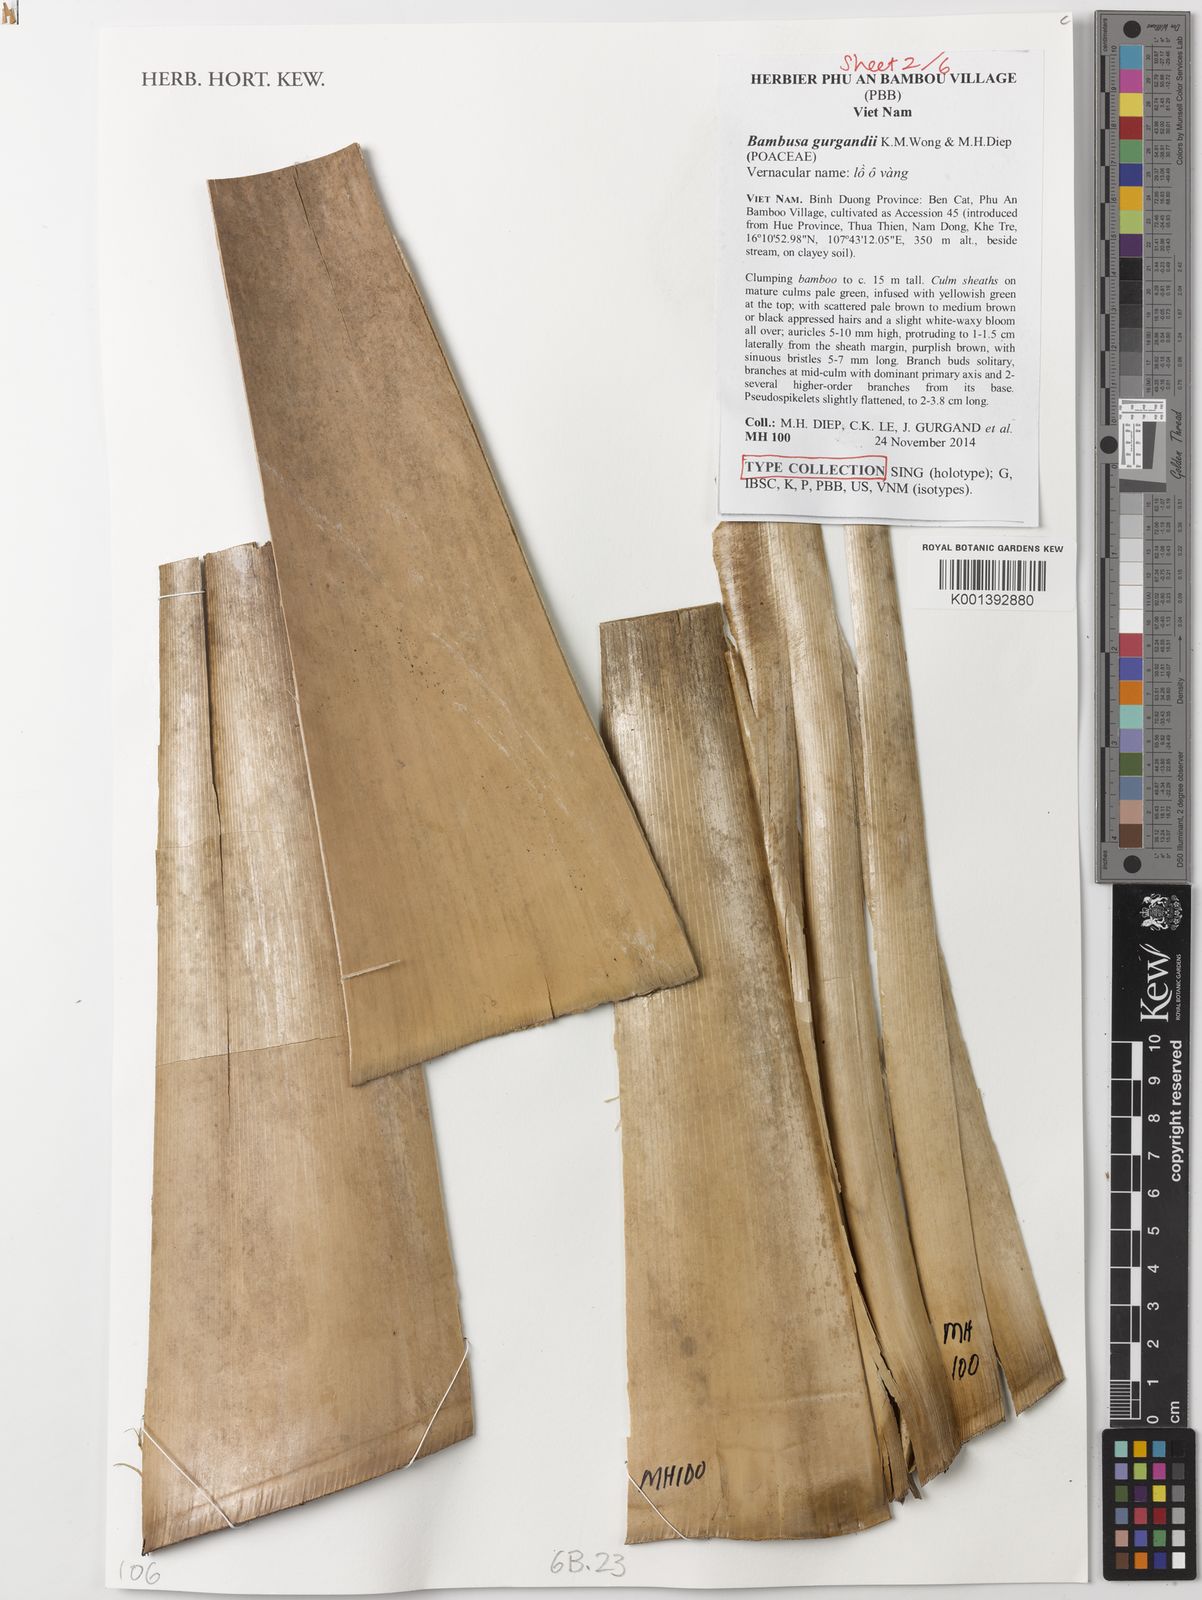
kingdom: Plantae
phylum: Tracheophyta
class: Liliopsida
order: Poales
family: Poaceae
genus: Bambusa
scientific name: Bambusa gurgandii
